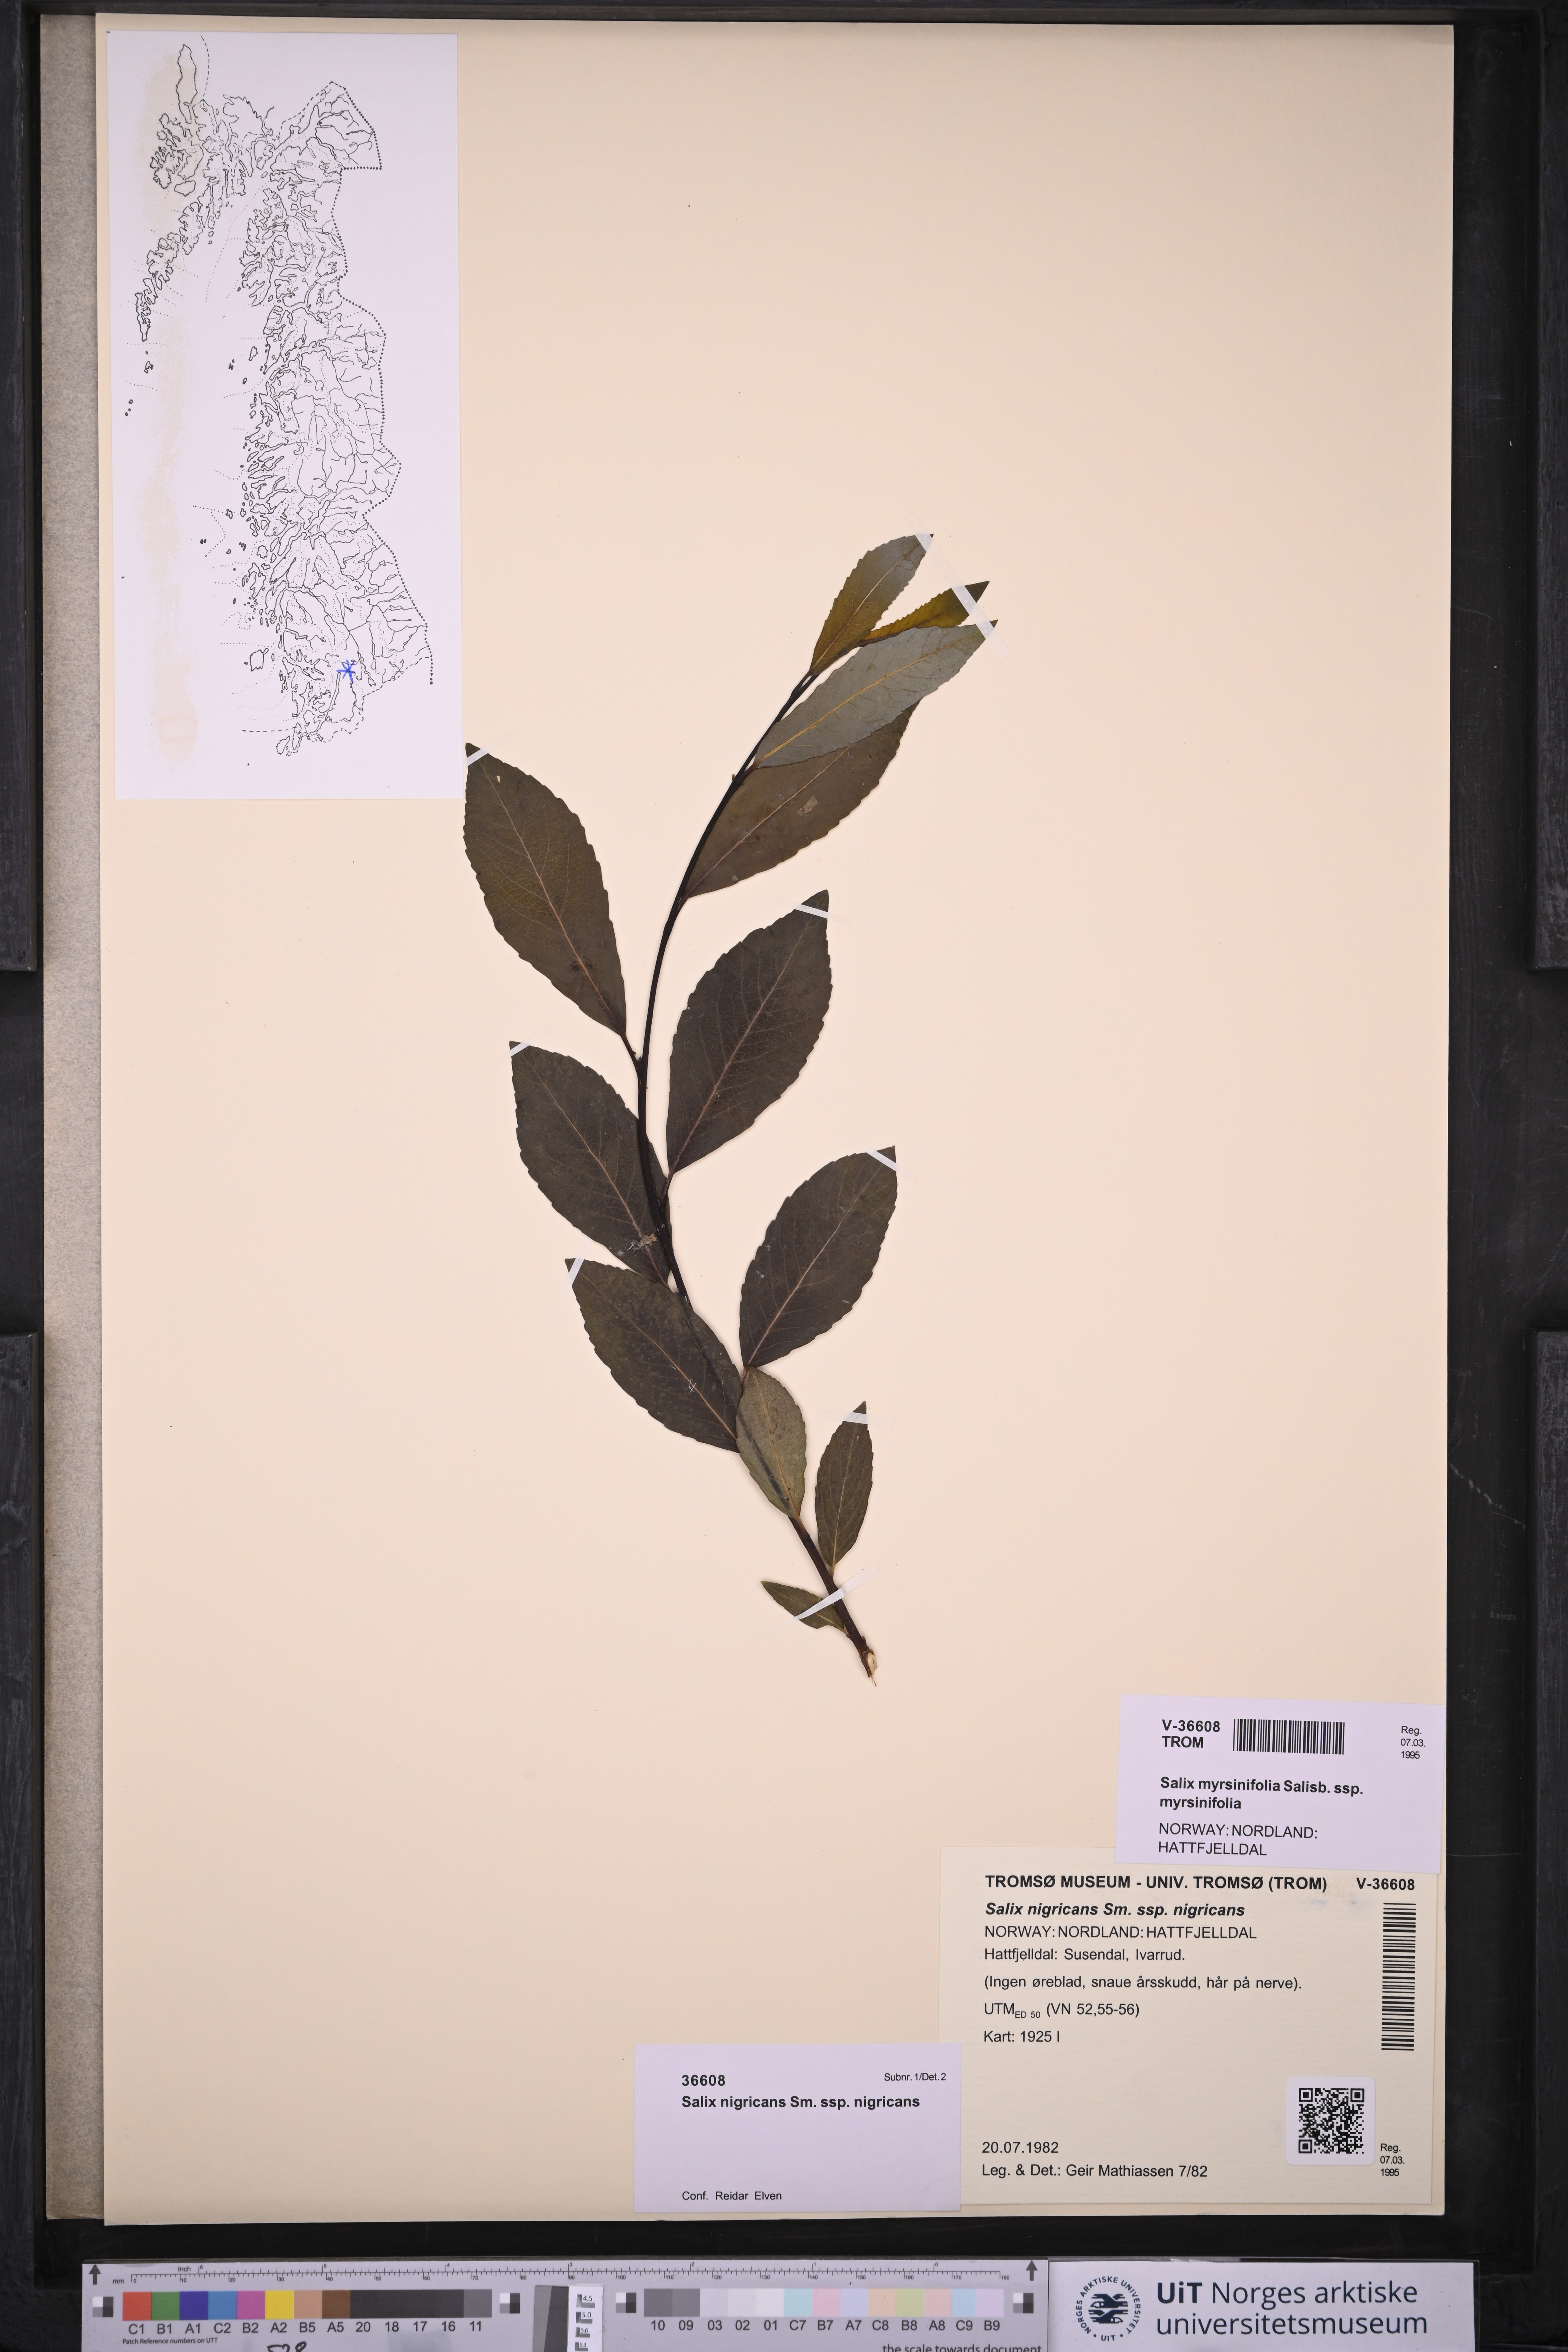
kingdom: Plantae
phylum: Tracheophyta
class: Magnoliopsida
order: Malpighiales
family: Salicaceae
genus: Salix
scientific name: Salix myrsinifolia
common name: Dark-leaved willow
